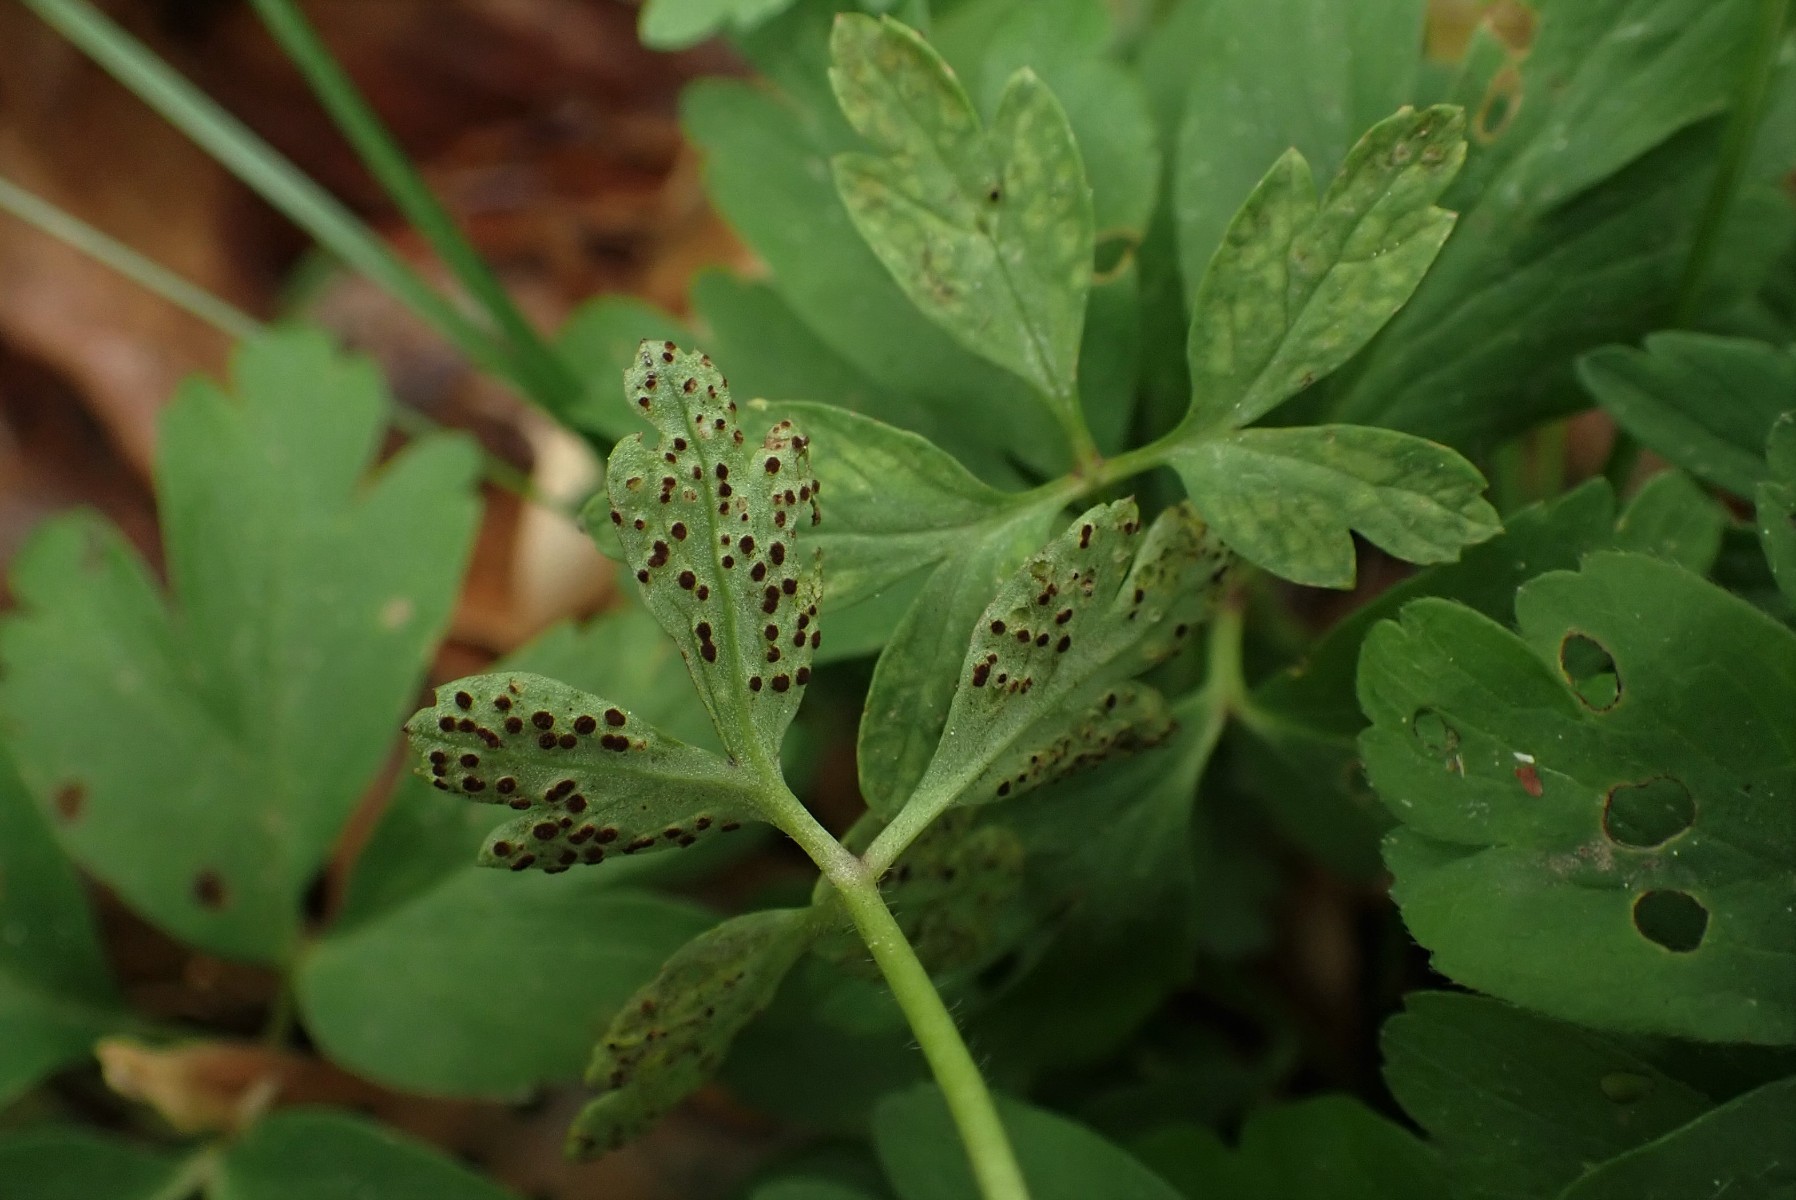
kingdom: Fungi
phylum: Basidiomycota
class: Pucciniomycetes
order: Pucciniales
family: Tranzscheliaceae
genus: Tranzschelia
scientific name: Tranzschelia anemones
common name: anemone-knæksporerust
